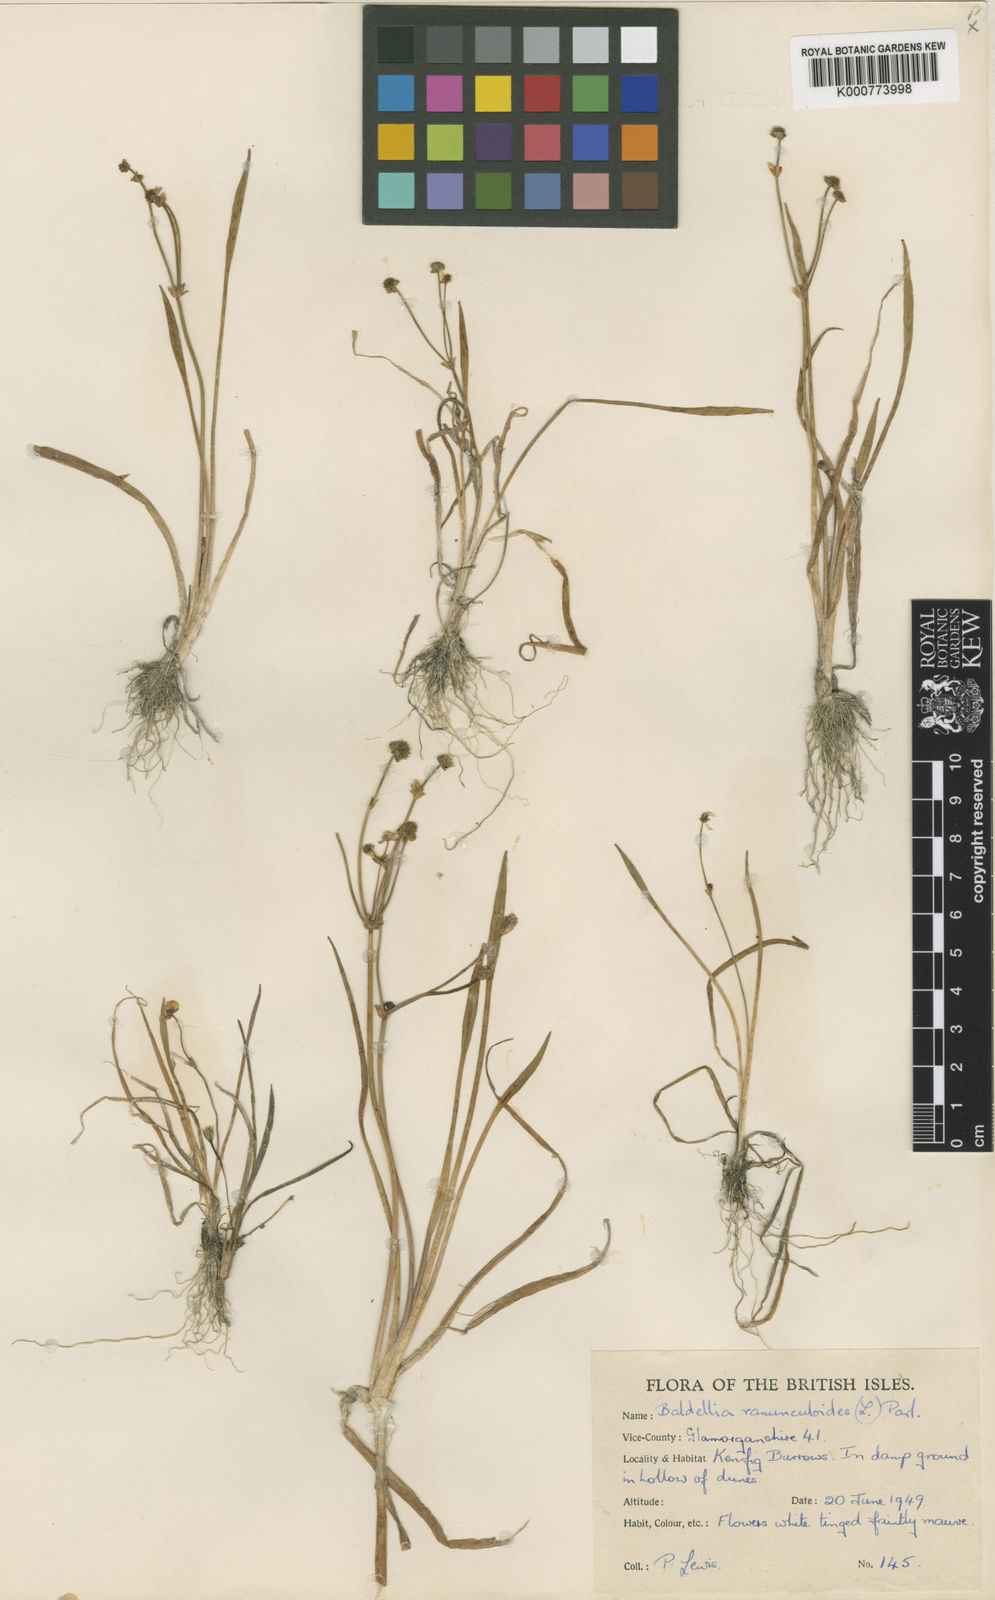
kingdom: Plantae
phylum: Tracheophyta
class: Liliopsida
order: Alismatales
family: Alismataceae
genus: Baldellia
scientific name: Baldellia ranunculoides
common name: Lesser water-plantain
